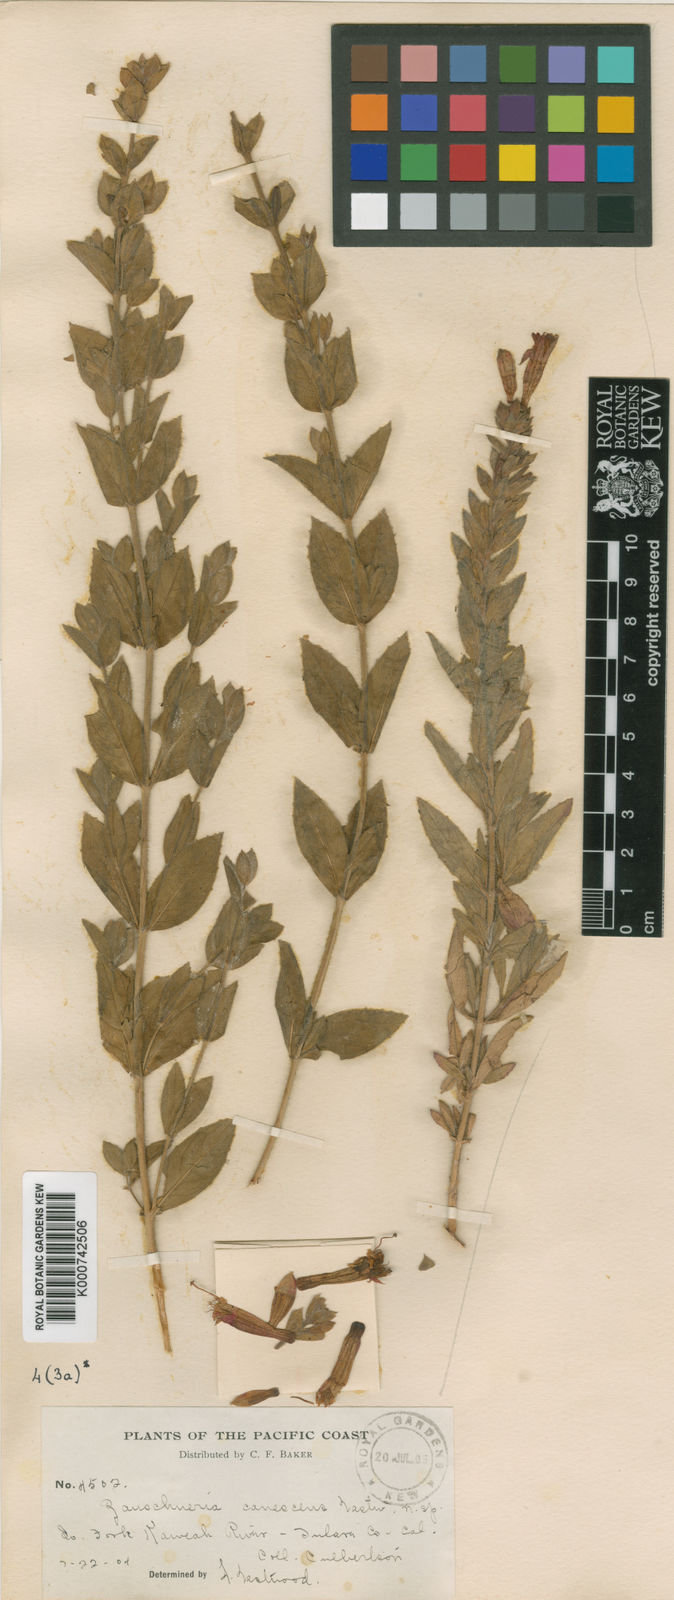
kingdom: Plantae
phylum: Tracheophyta
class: Magnoliopsida
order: Myrtales
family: Onagraceae
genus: Epilobium
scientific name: Epilobium
